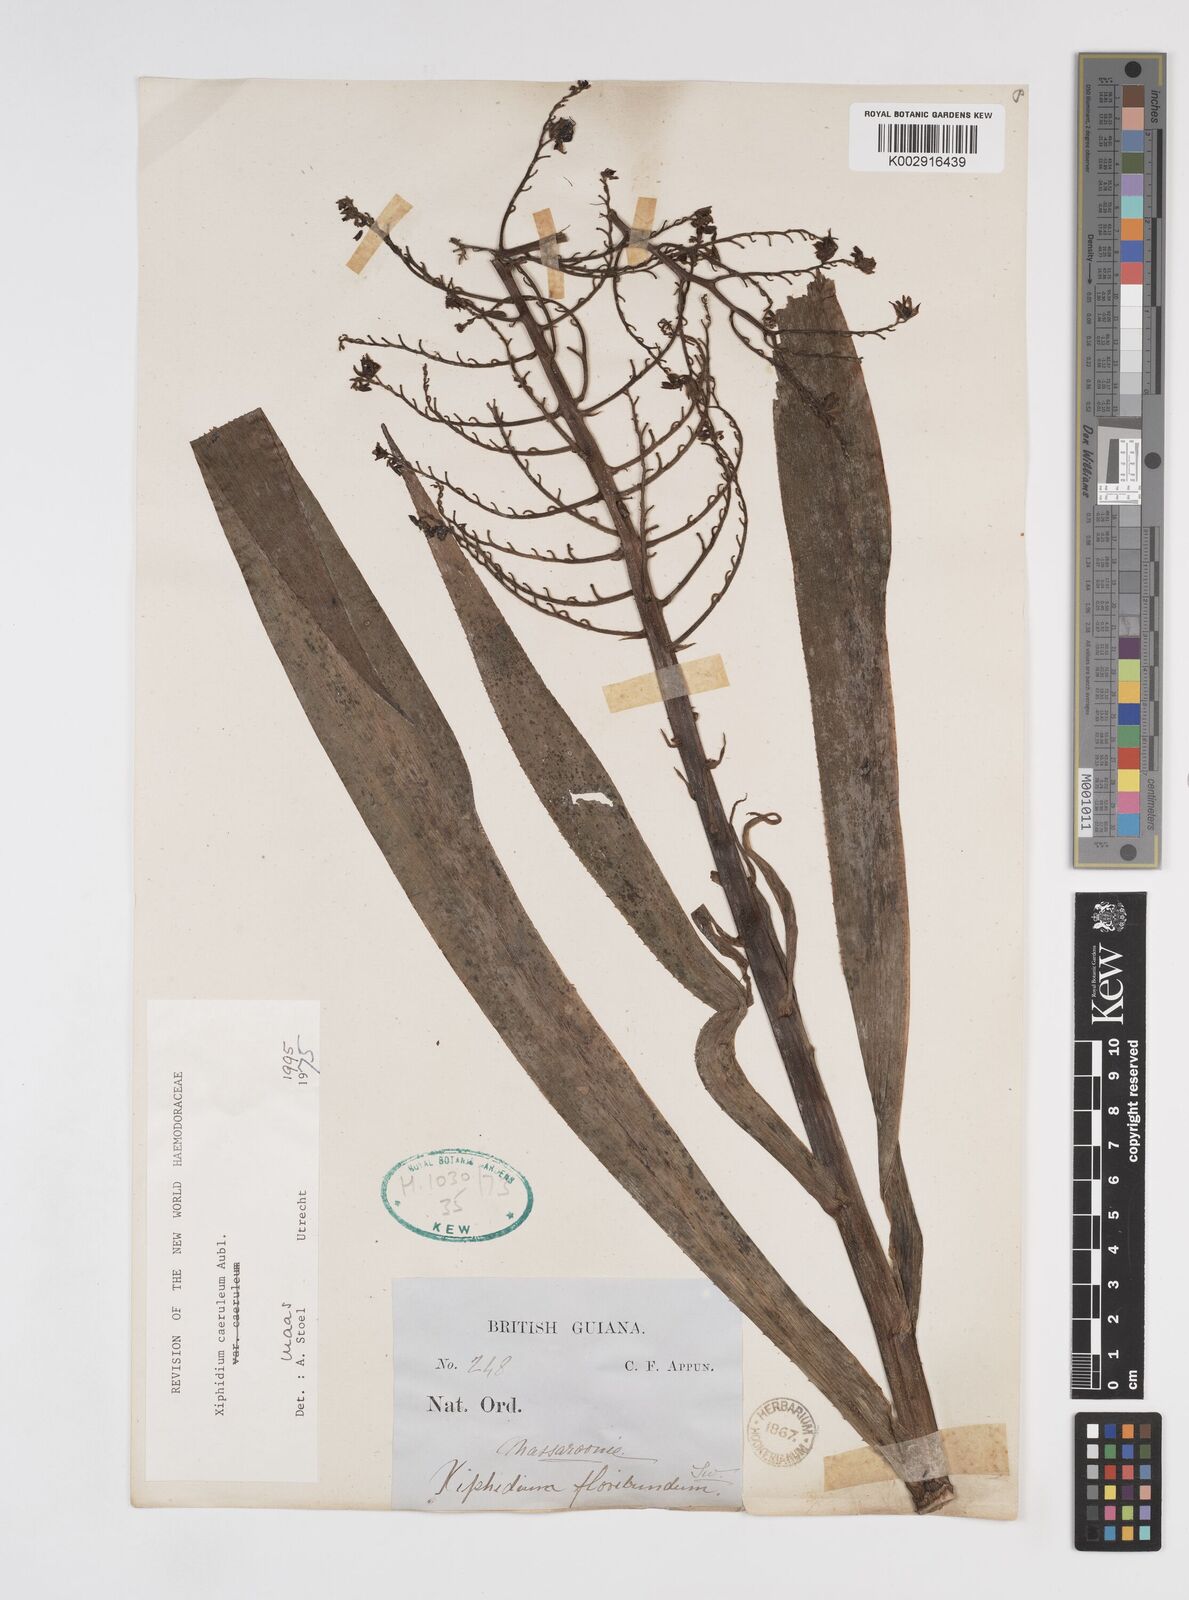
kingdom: Plantae
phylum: Tracheophyta
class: Liliopsida
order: Commelinales
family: Haemodoraceae
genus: Xiphidium
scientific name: Xiphidium caeruleum
